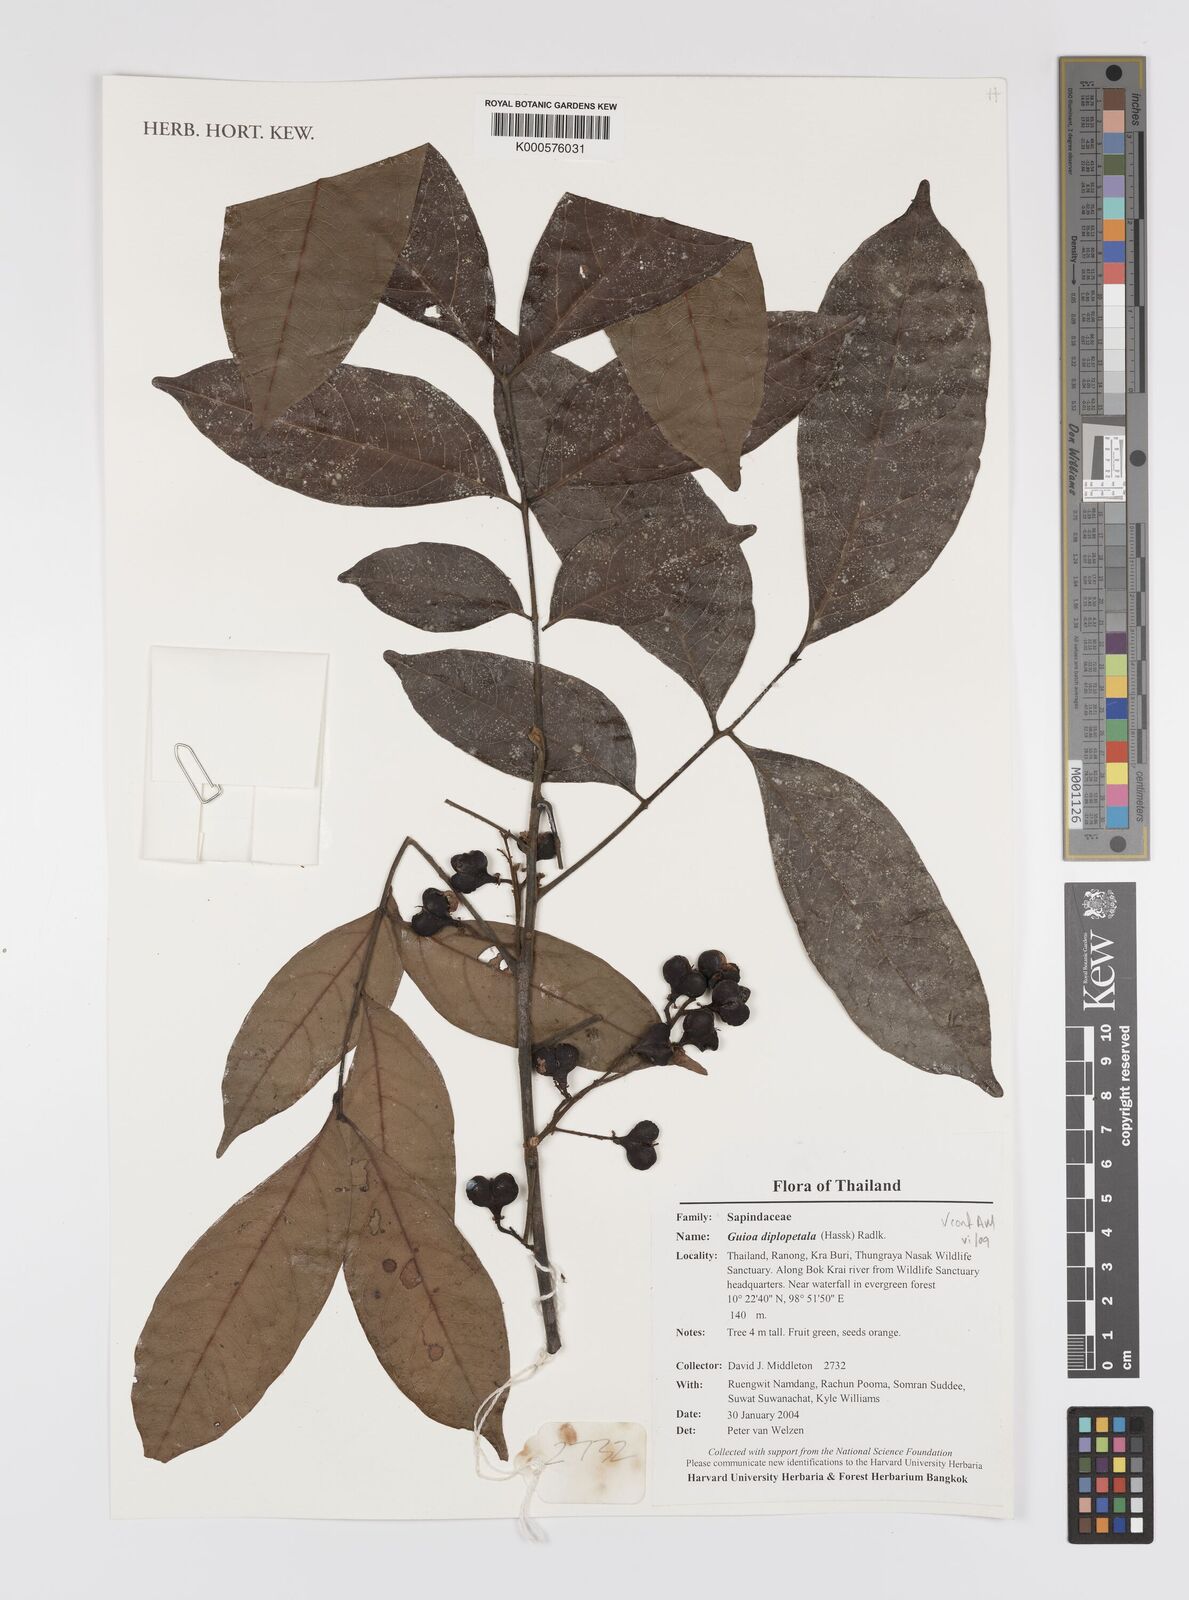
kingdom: Plantae
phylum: Tracheophyta
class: Magnoliopsida
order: Sapindales
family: Sapindaceae
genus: Guioa
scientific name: Guioa diplopetala
